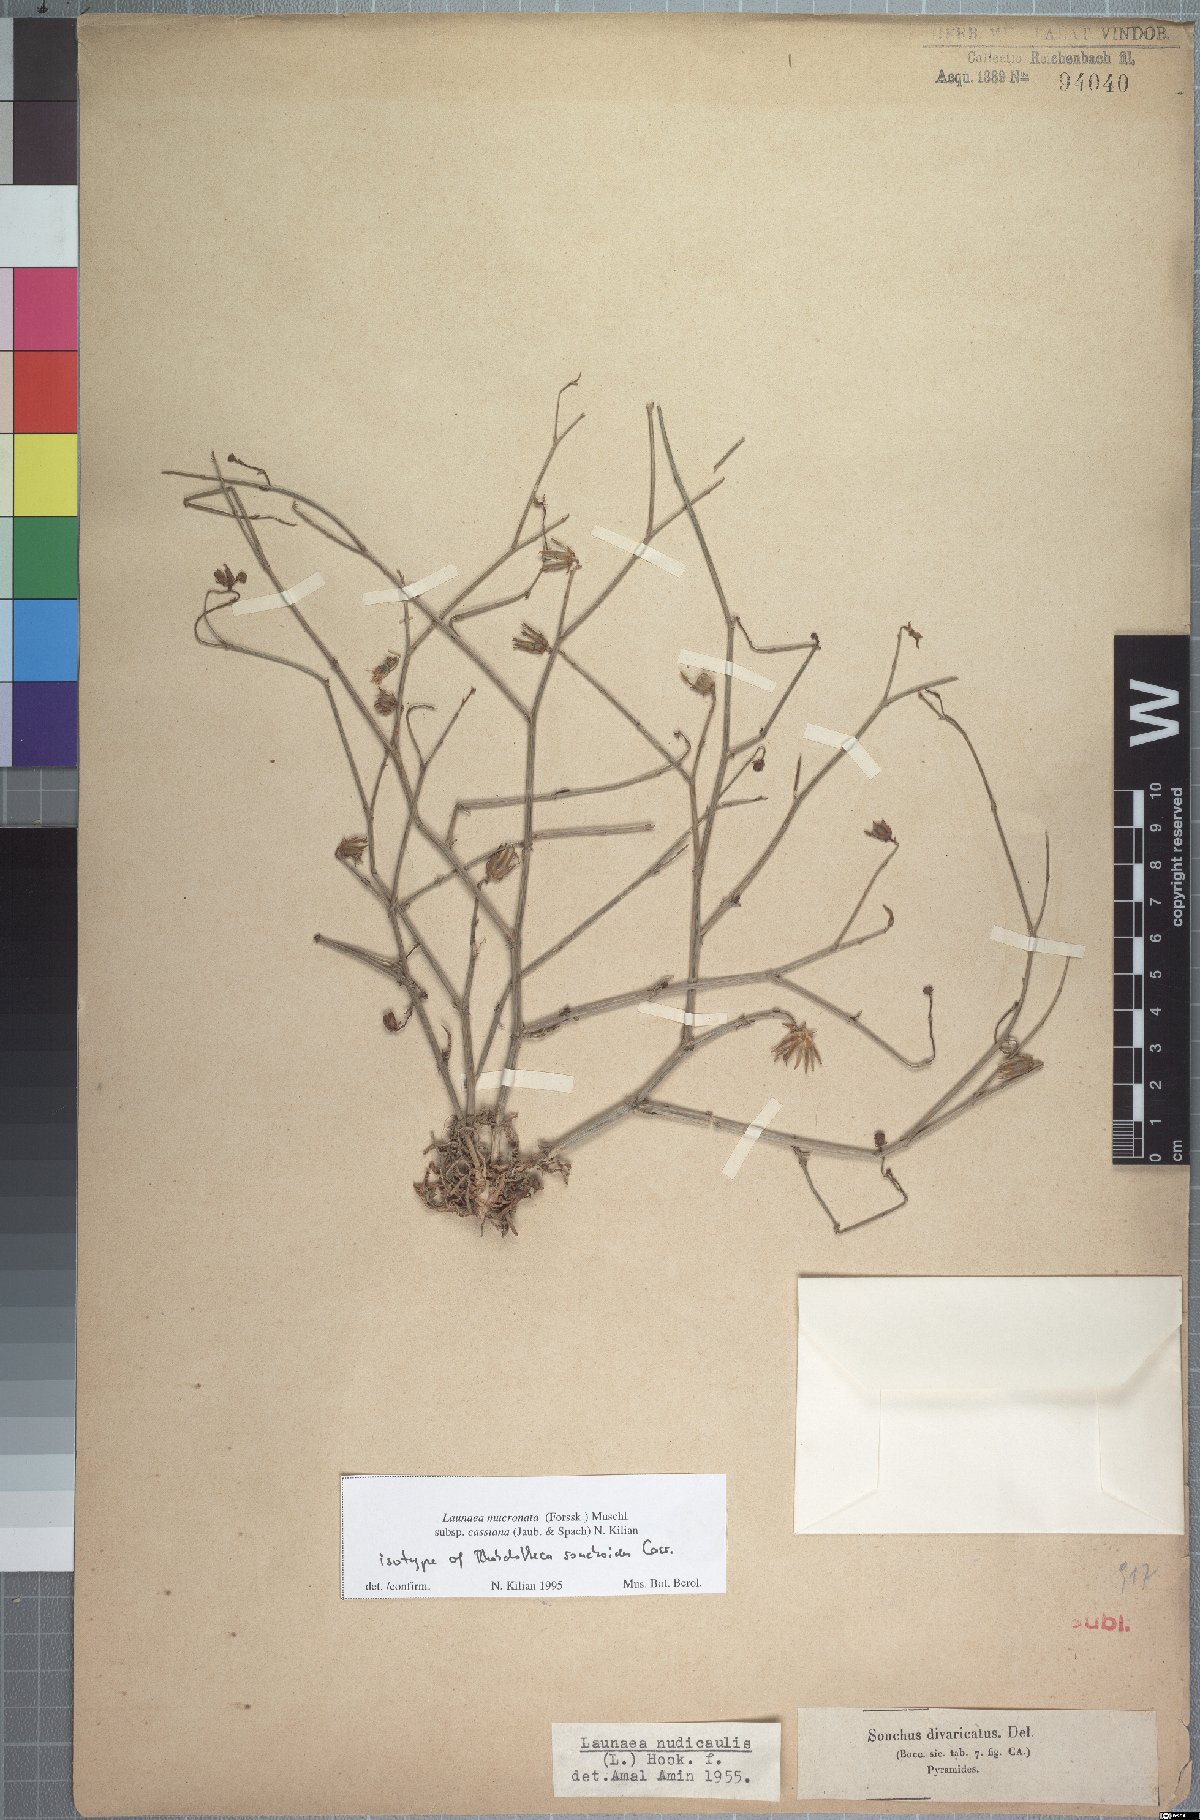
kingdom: Plantae
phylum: Tracheophyta
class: Magnoliopsida
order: Asterales
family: Asteraceae
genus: Launaea
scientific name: Launaea mucronata
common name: Mucronate launea
